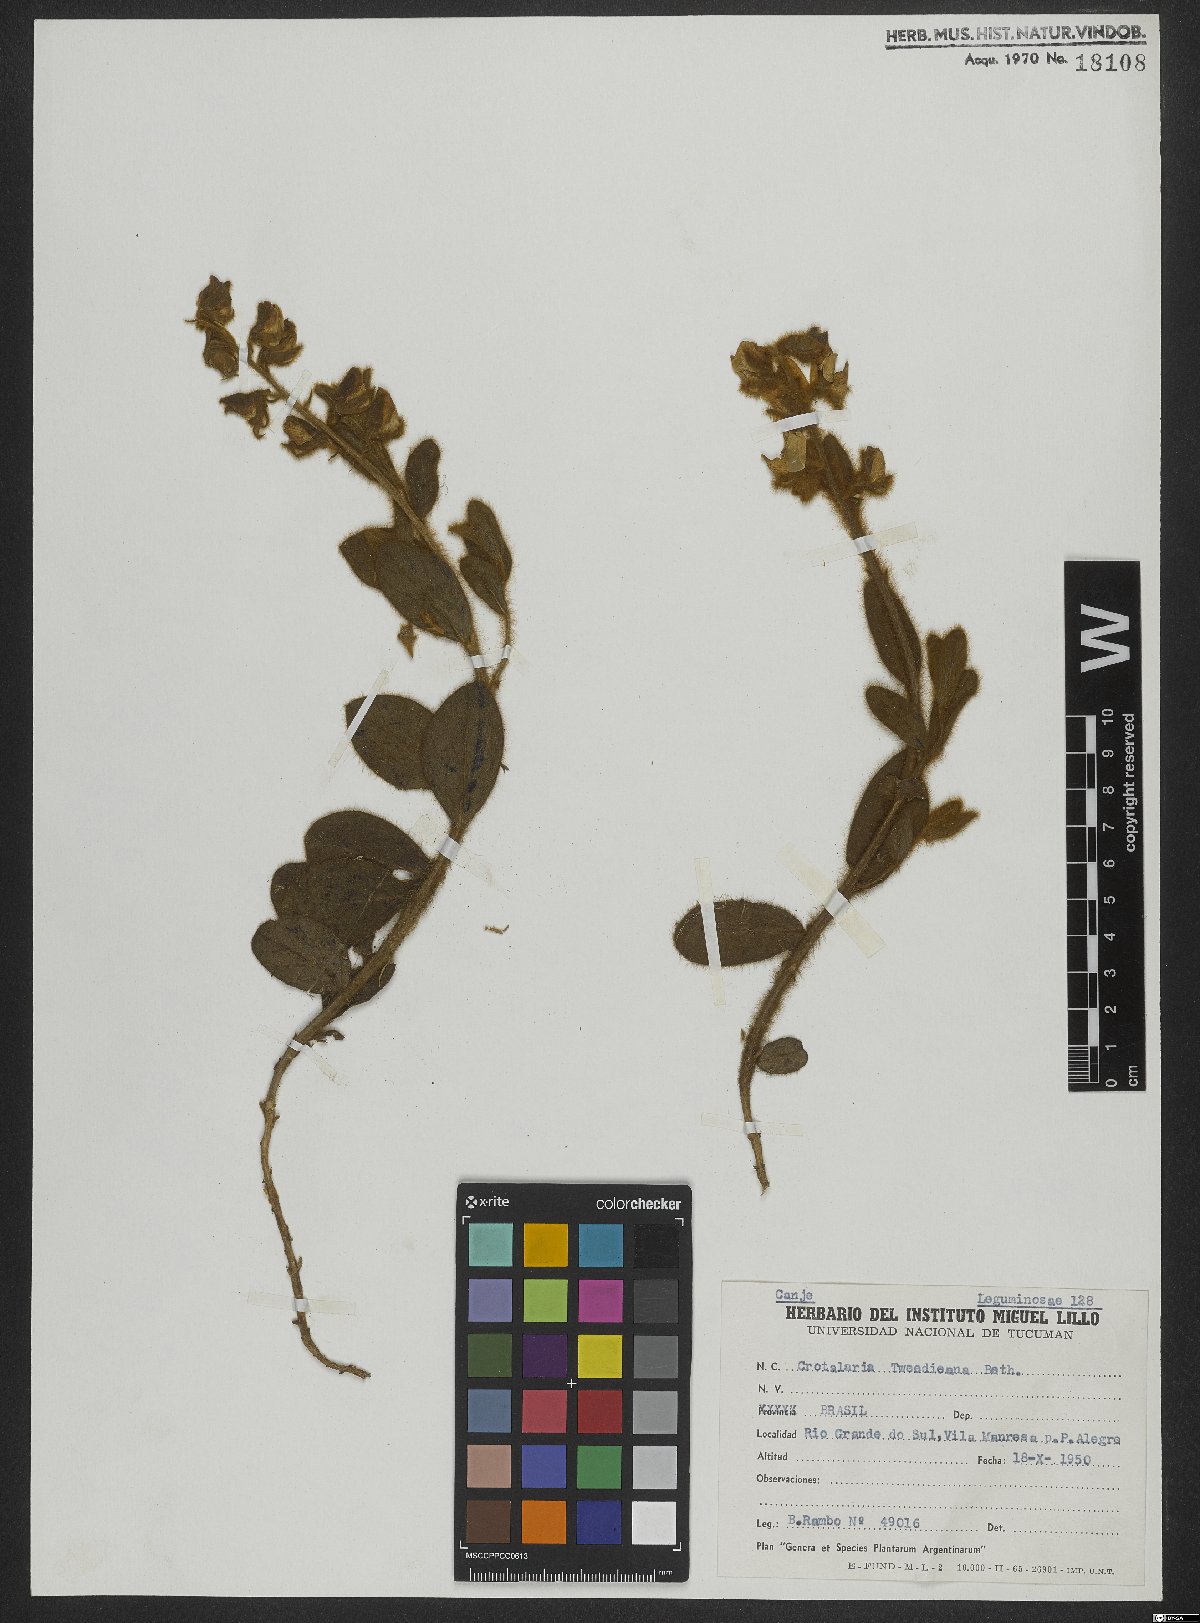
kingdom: Plantae
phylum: Tracheophyta
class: Magnoliopsida
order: Fabales
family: Fabaceae
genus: Crotalaria
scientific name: Crotalaria tweediana
